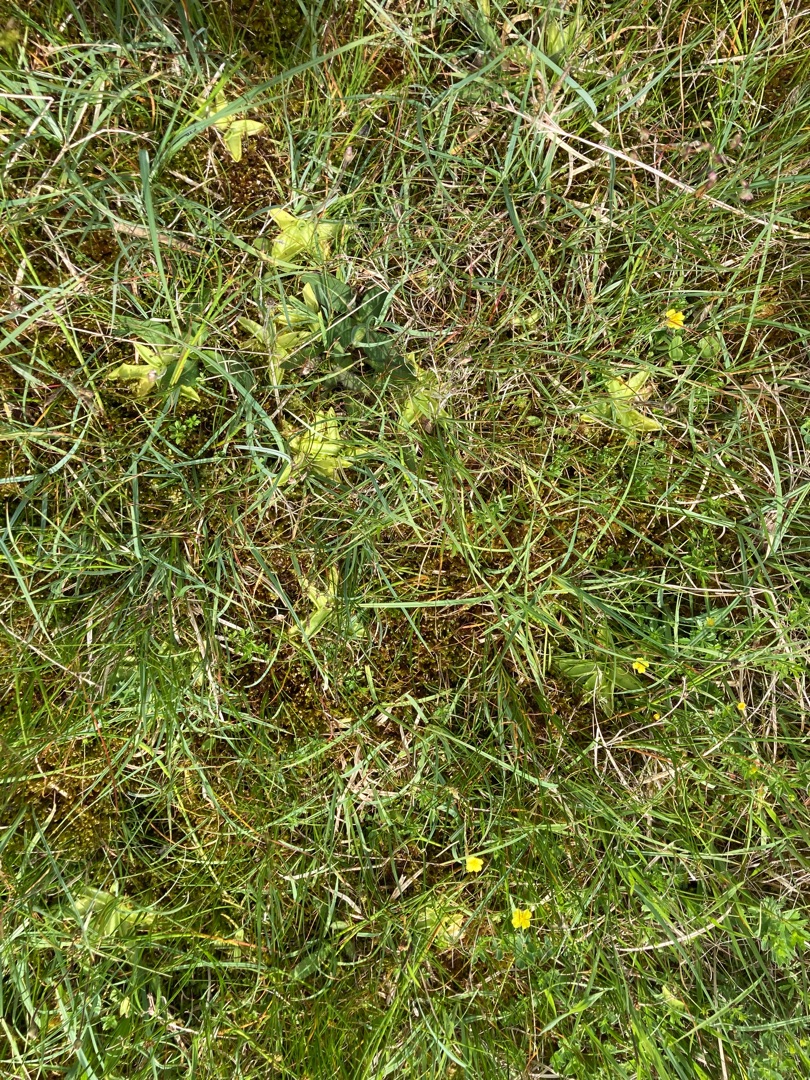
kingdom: Plantae
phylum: Tracheophyta
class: Magnoliopsida
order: Lamiales
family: Lentibulariaceae
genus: Pinguicula
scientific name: Pinguicula vulgaris
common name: Vibefedt
